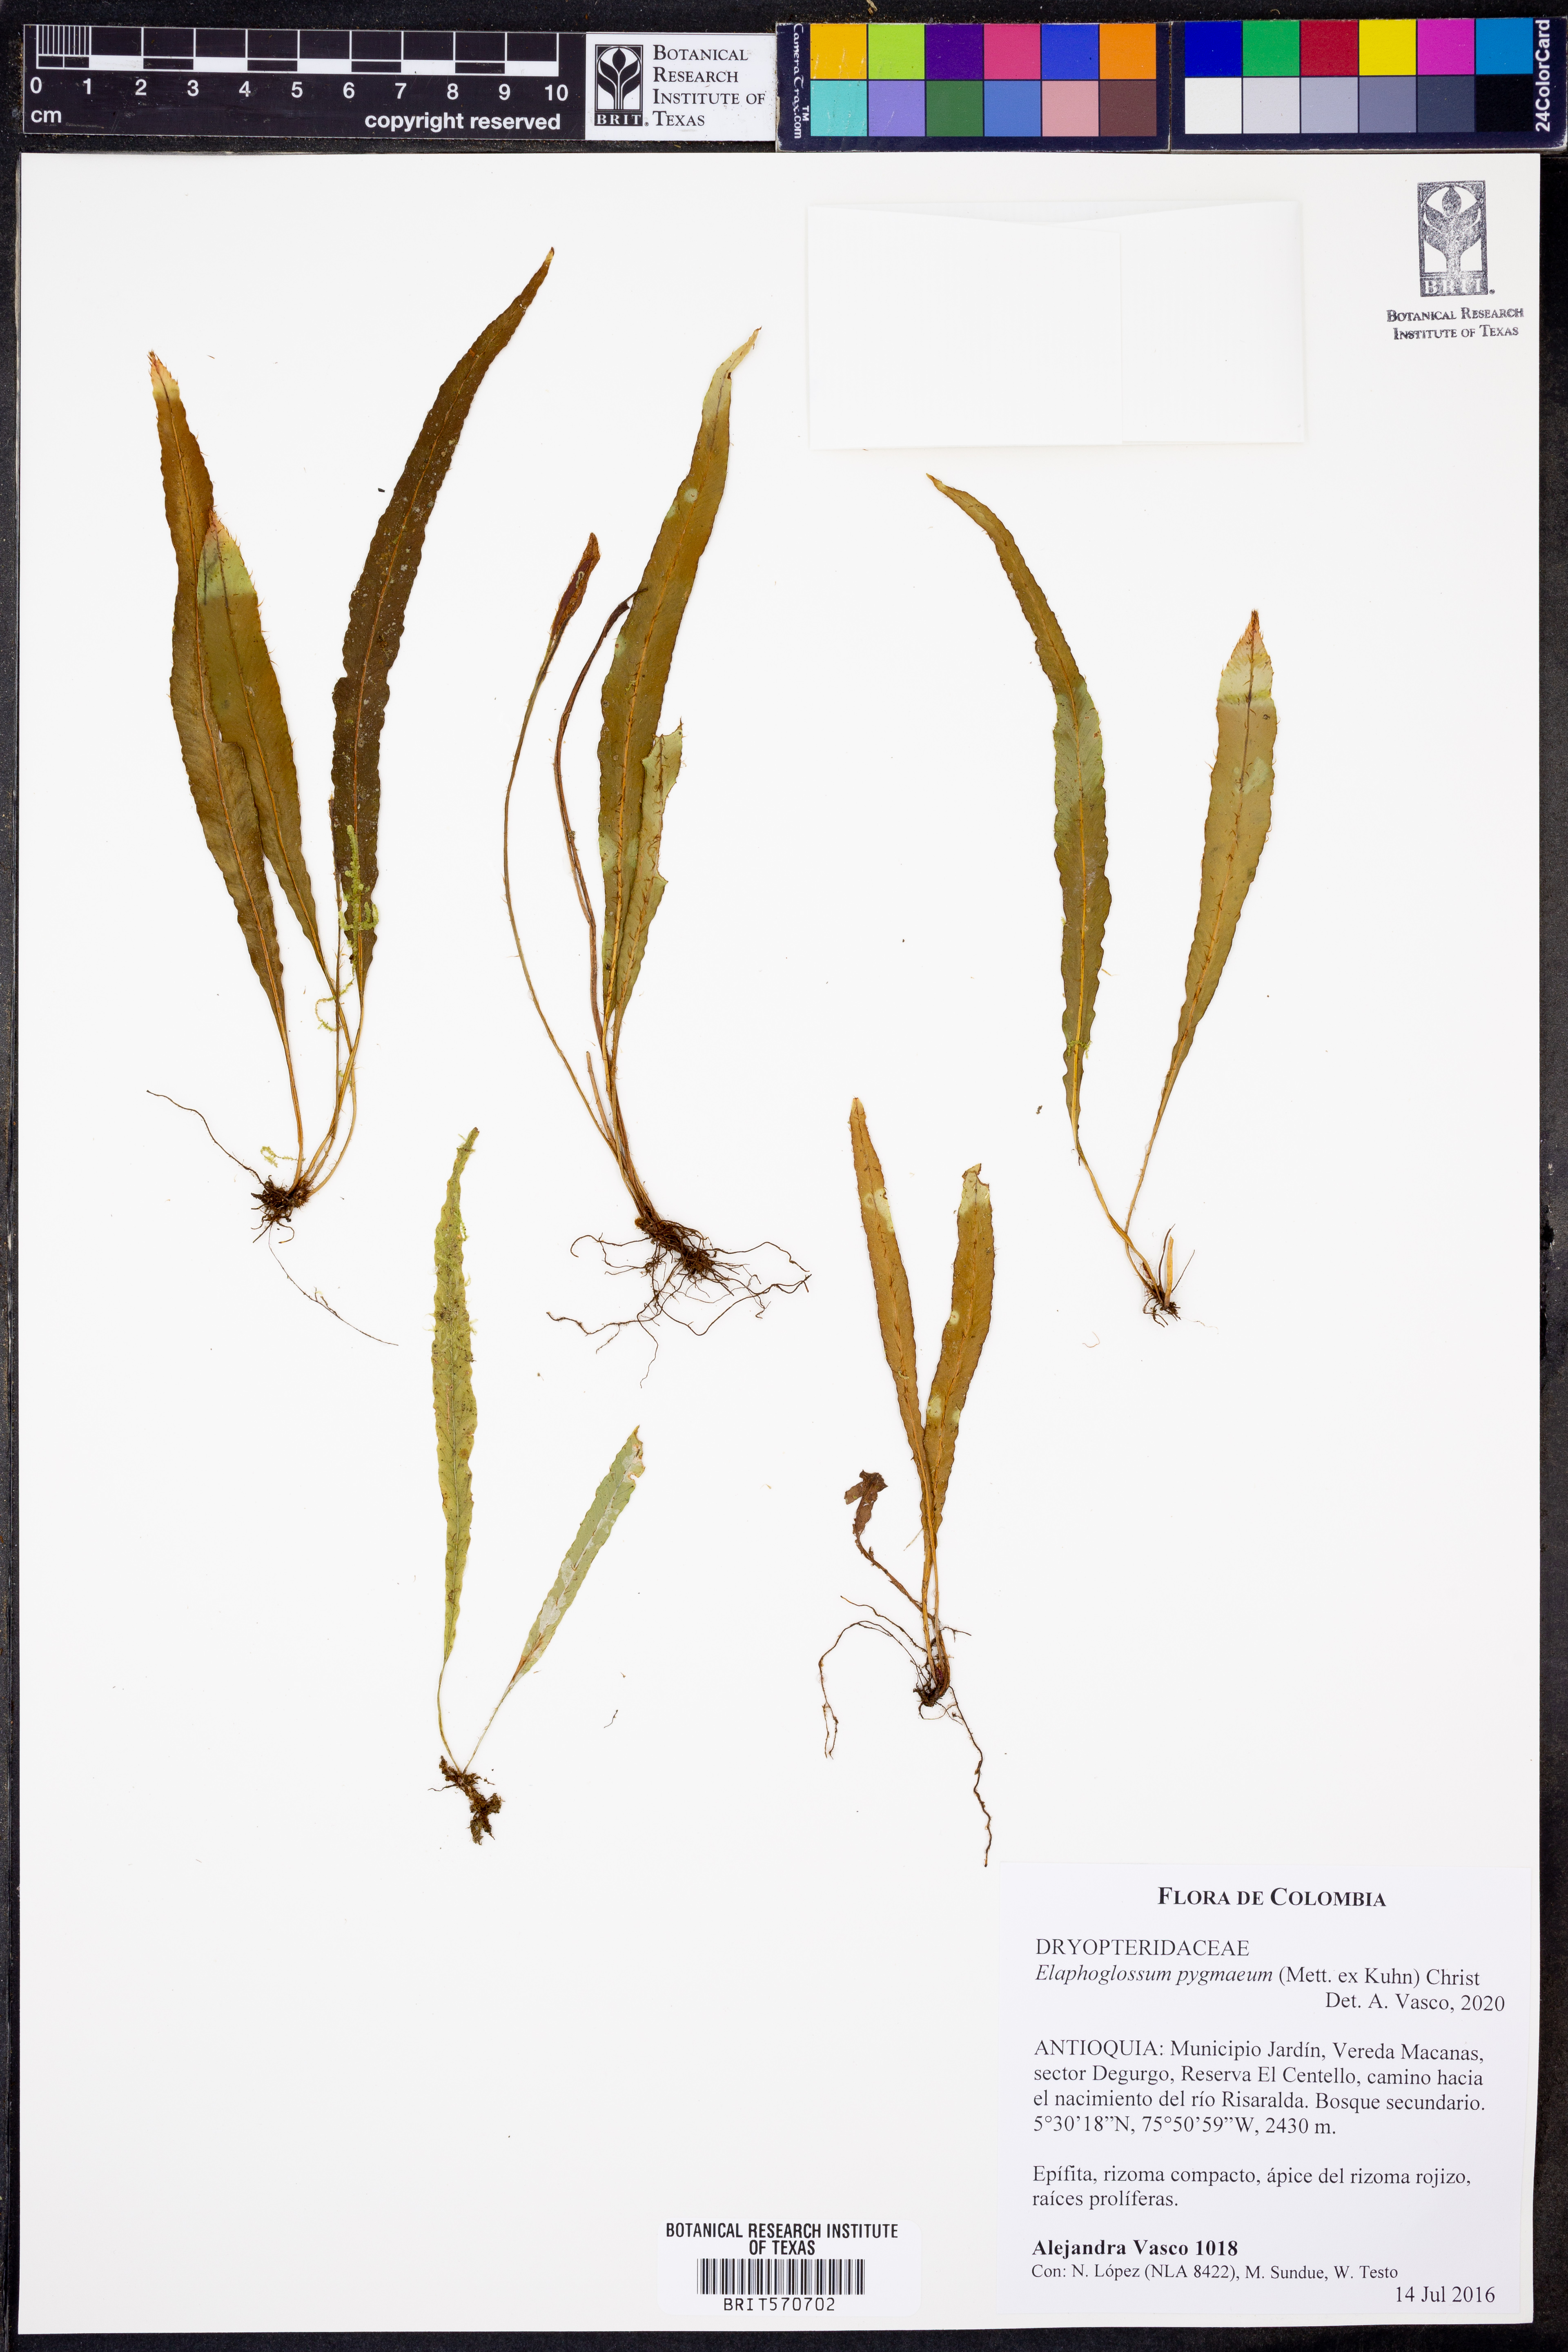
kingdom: Plantae
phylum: Tracheophyta
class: Polypodiopsida
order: Polypodiales
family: Dryopteridaceae
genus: Elaphoglossum
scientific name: Elaphoglossum pygmaeum
